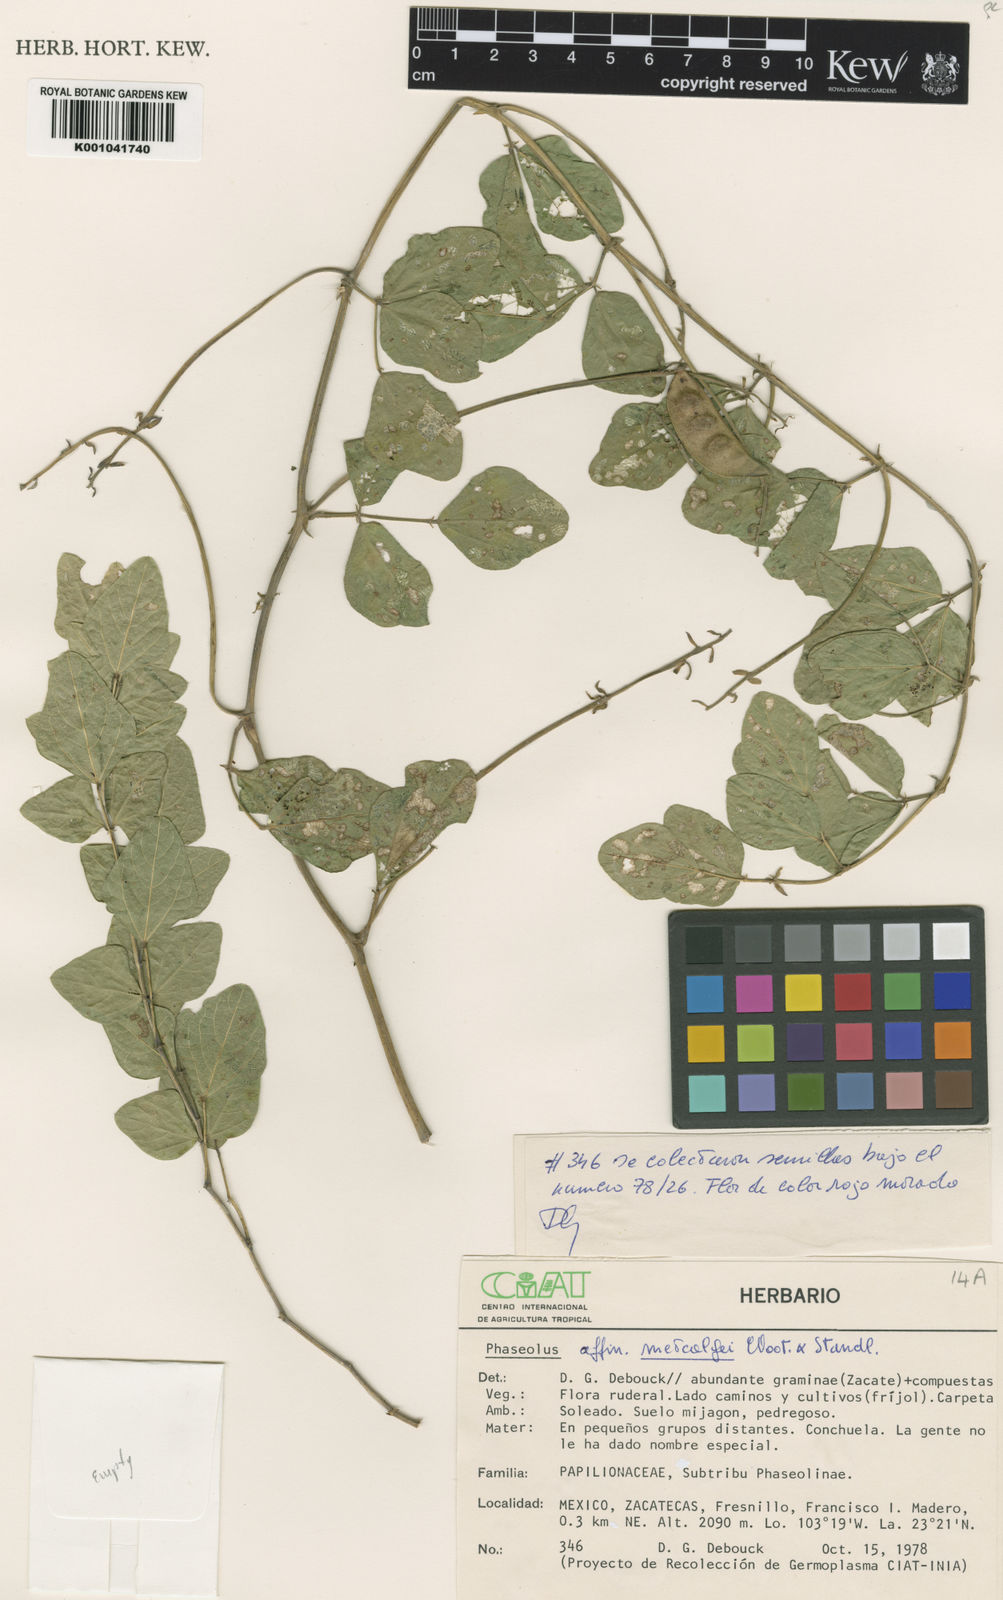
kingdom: Plantae
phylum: Tracheophyta
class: Magnoliopsida
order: Fabales
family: Fabaceae
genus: Phaseolus
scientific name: Phaseolus
